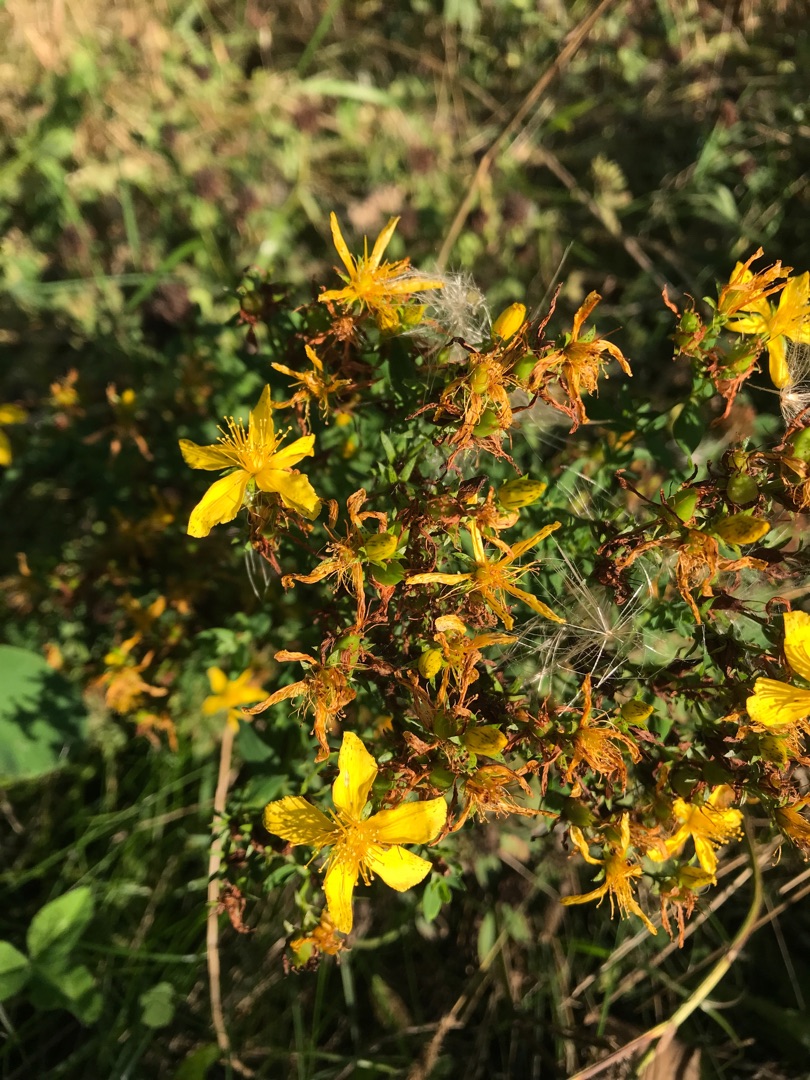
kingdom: Plantae
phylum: Tracheophyta
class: Magnoliopsida
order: Malpighiales
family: Hypericaceae
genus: Hypericum
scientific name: Hypericum perforatum
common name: Prikbladet perikon
